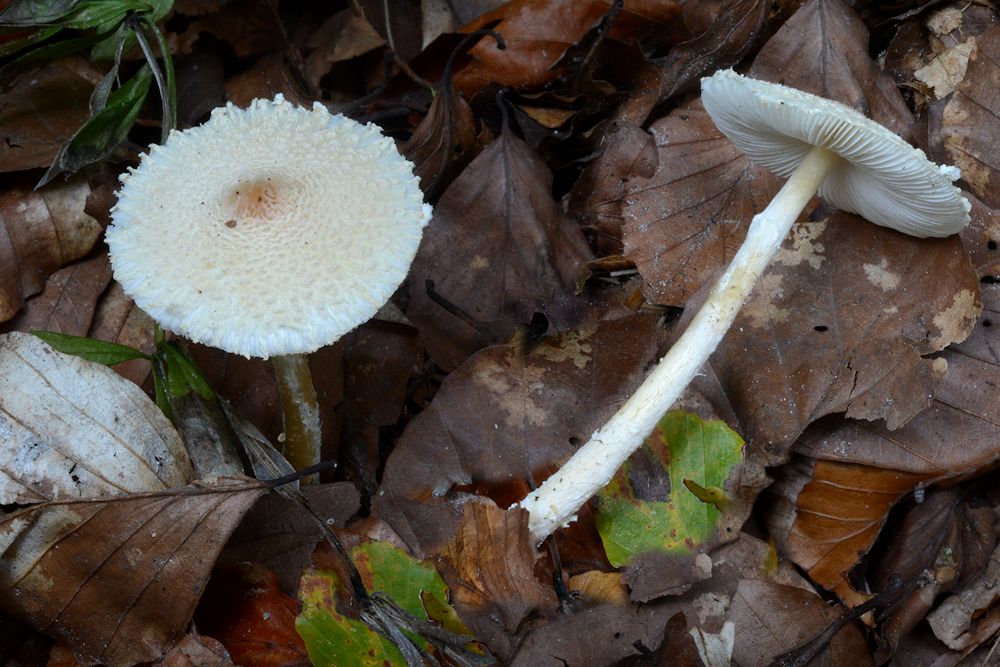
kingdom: Fungi
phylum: Basidiomycota
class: Agaricomycetes
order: Agaricales
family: Agaricaceae
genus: Lepiota
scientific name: Lepiota clypeolaria
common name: flosset parasolhat
